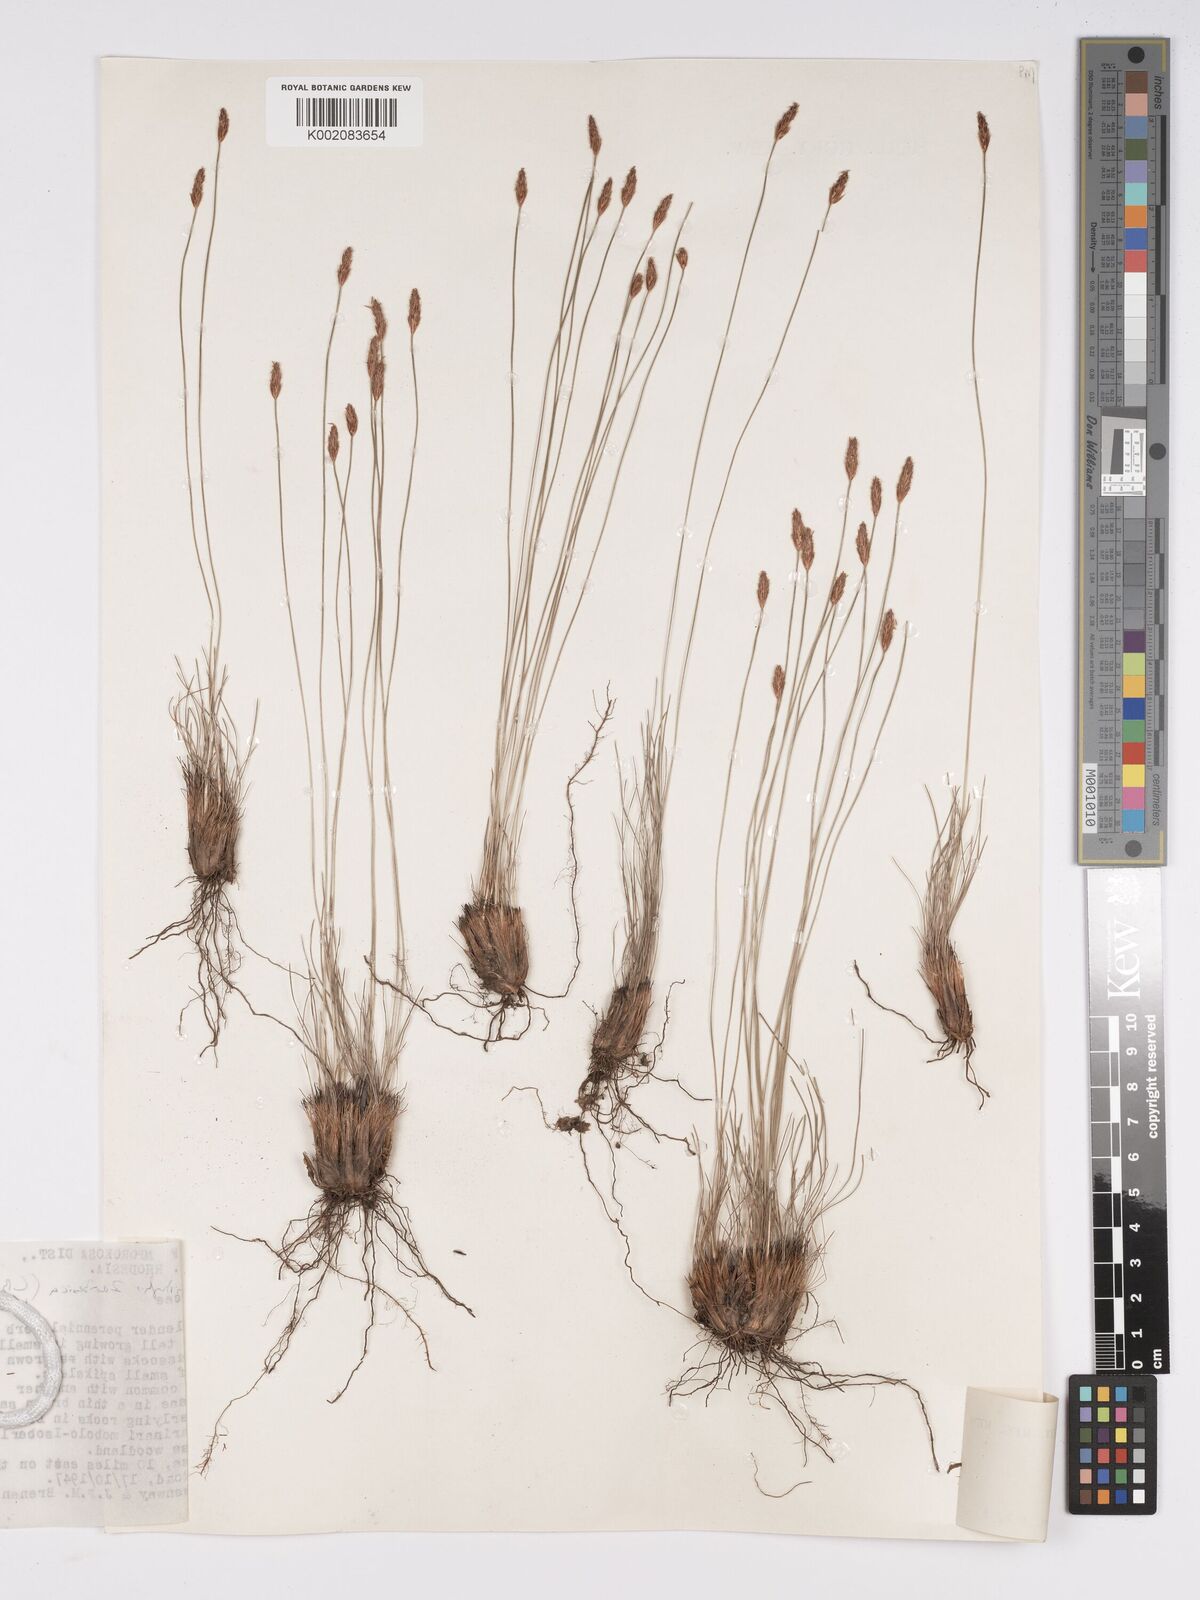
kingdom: Plantae
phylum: Tracheophyta
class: Liliopsida
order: Poales
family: Cyperaceae
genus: Bulbostylis
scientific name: Bulbostylis macra
